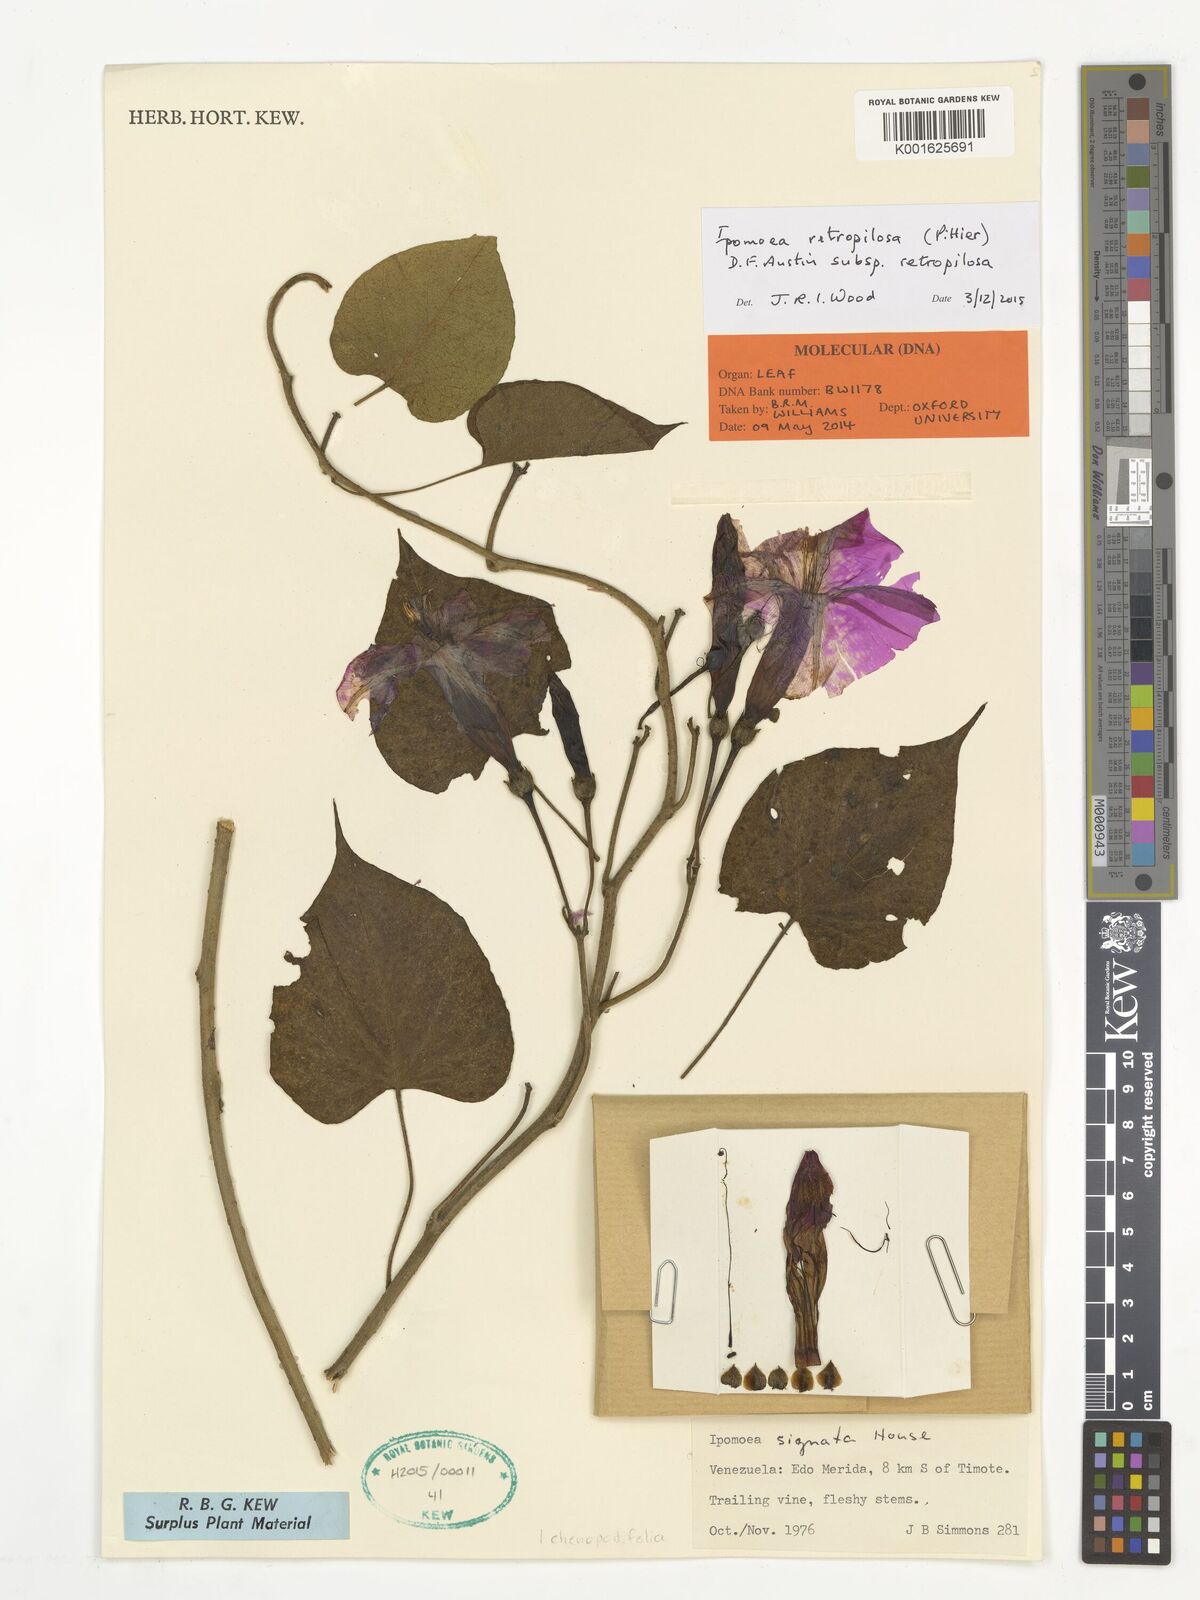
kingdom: Plantae
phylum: Tracheophyta
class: Magnoliopsida
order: Solanales
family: Convolvulaceae
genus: Ipomoea
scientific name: Ipomoea retropilosa
